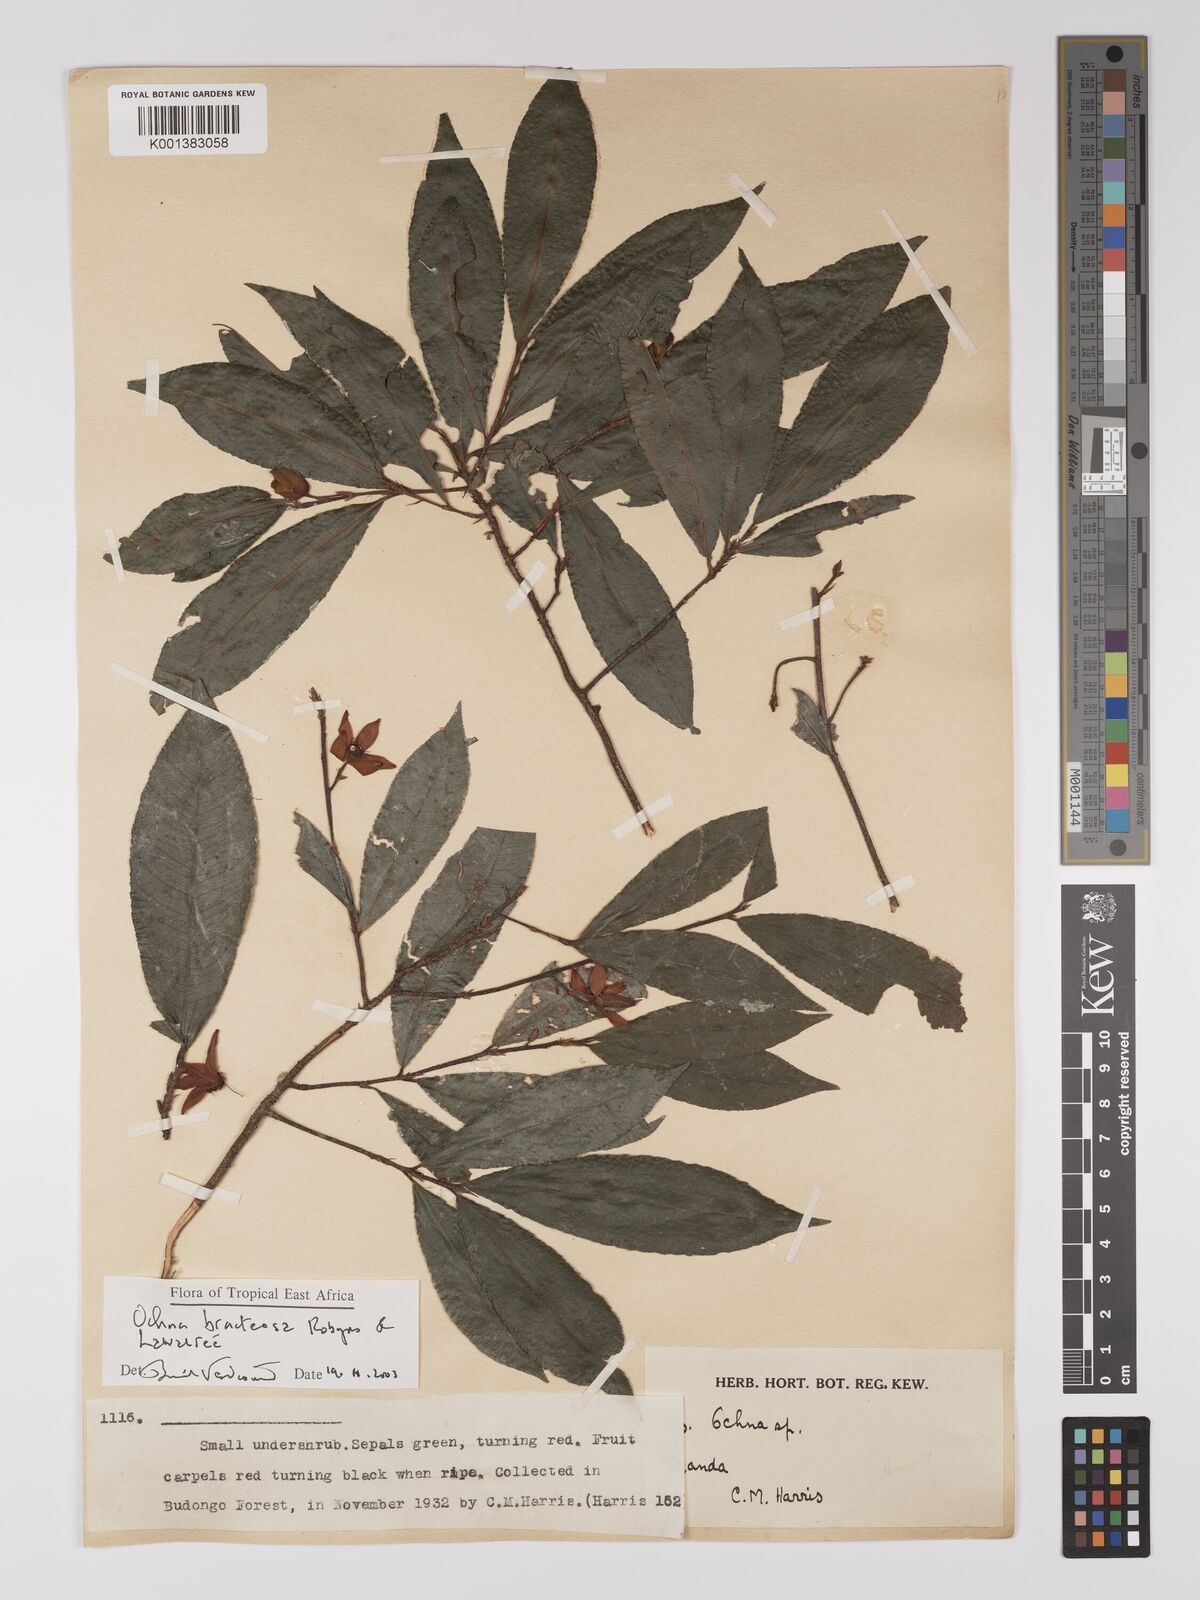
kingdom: Plantae
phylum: Tracheophyta
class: Magnoliopsida
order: Malpighiales
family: Ochnaceae
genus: Ochna
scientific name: Ochna bracteosa
